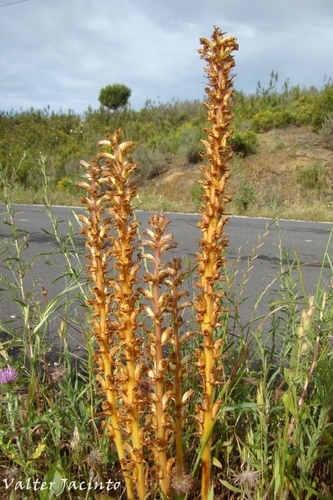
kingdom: Plantae
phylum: Tracheophyta
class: Magnoliopsida
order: Lamiales
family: Orobanchaceae
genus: Orobanche
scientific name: Orobanche minor
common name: Common broomrape
